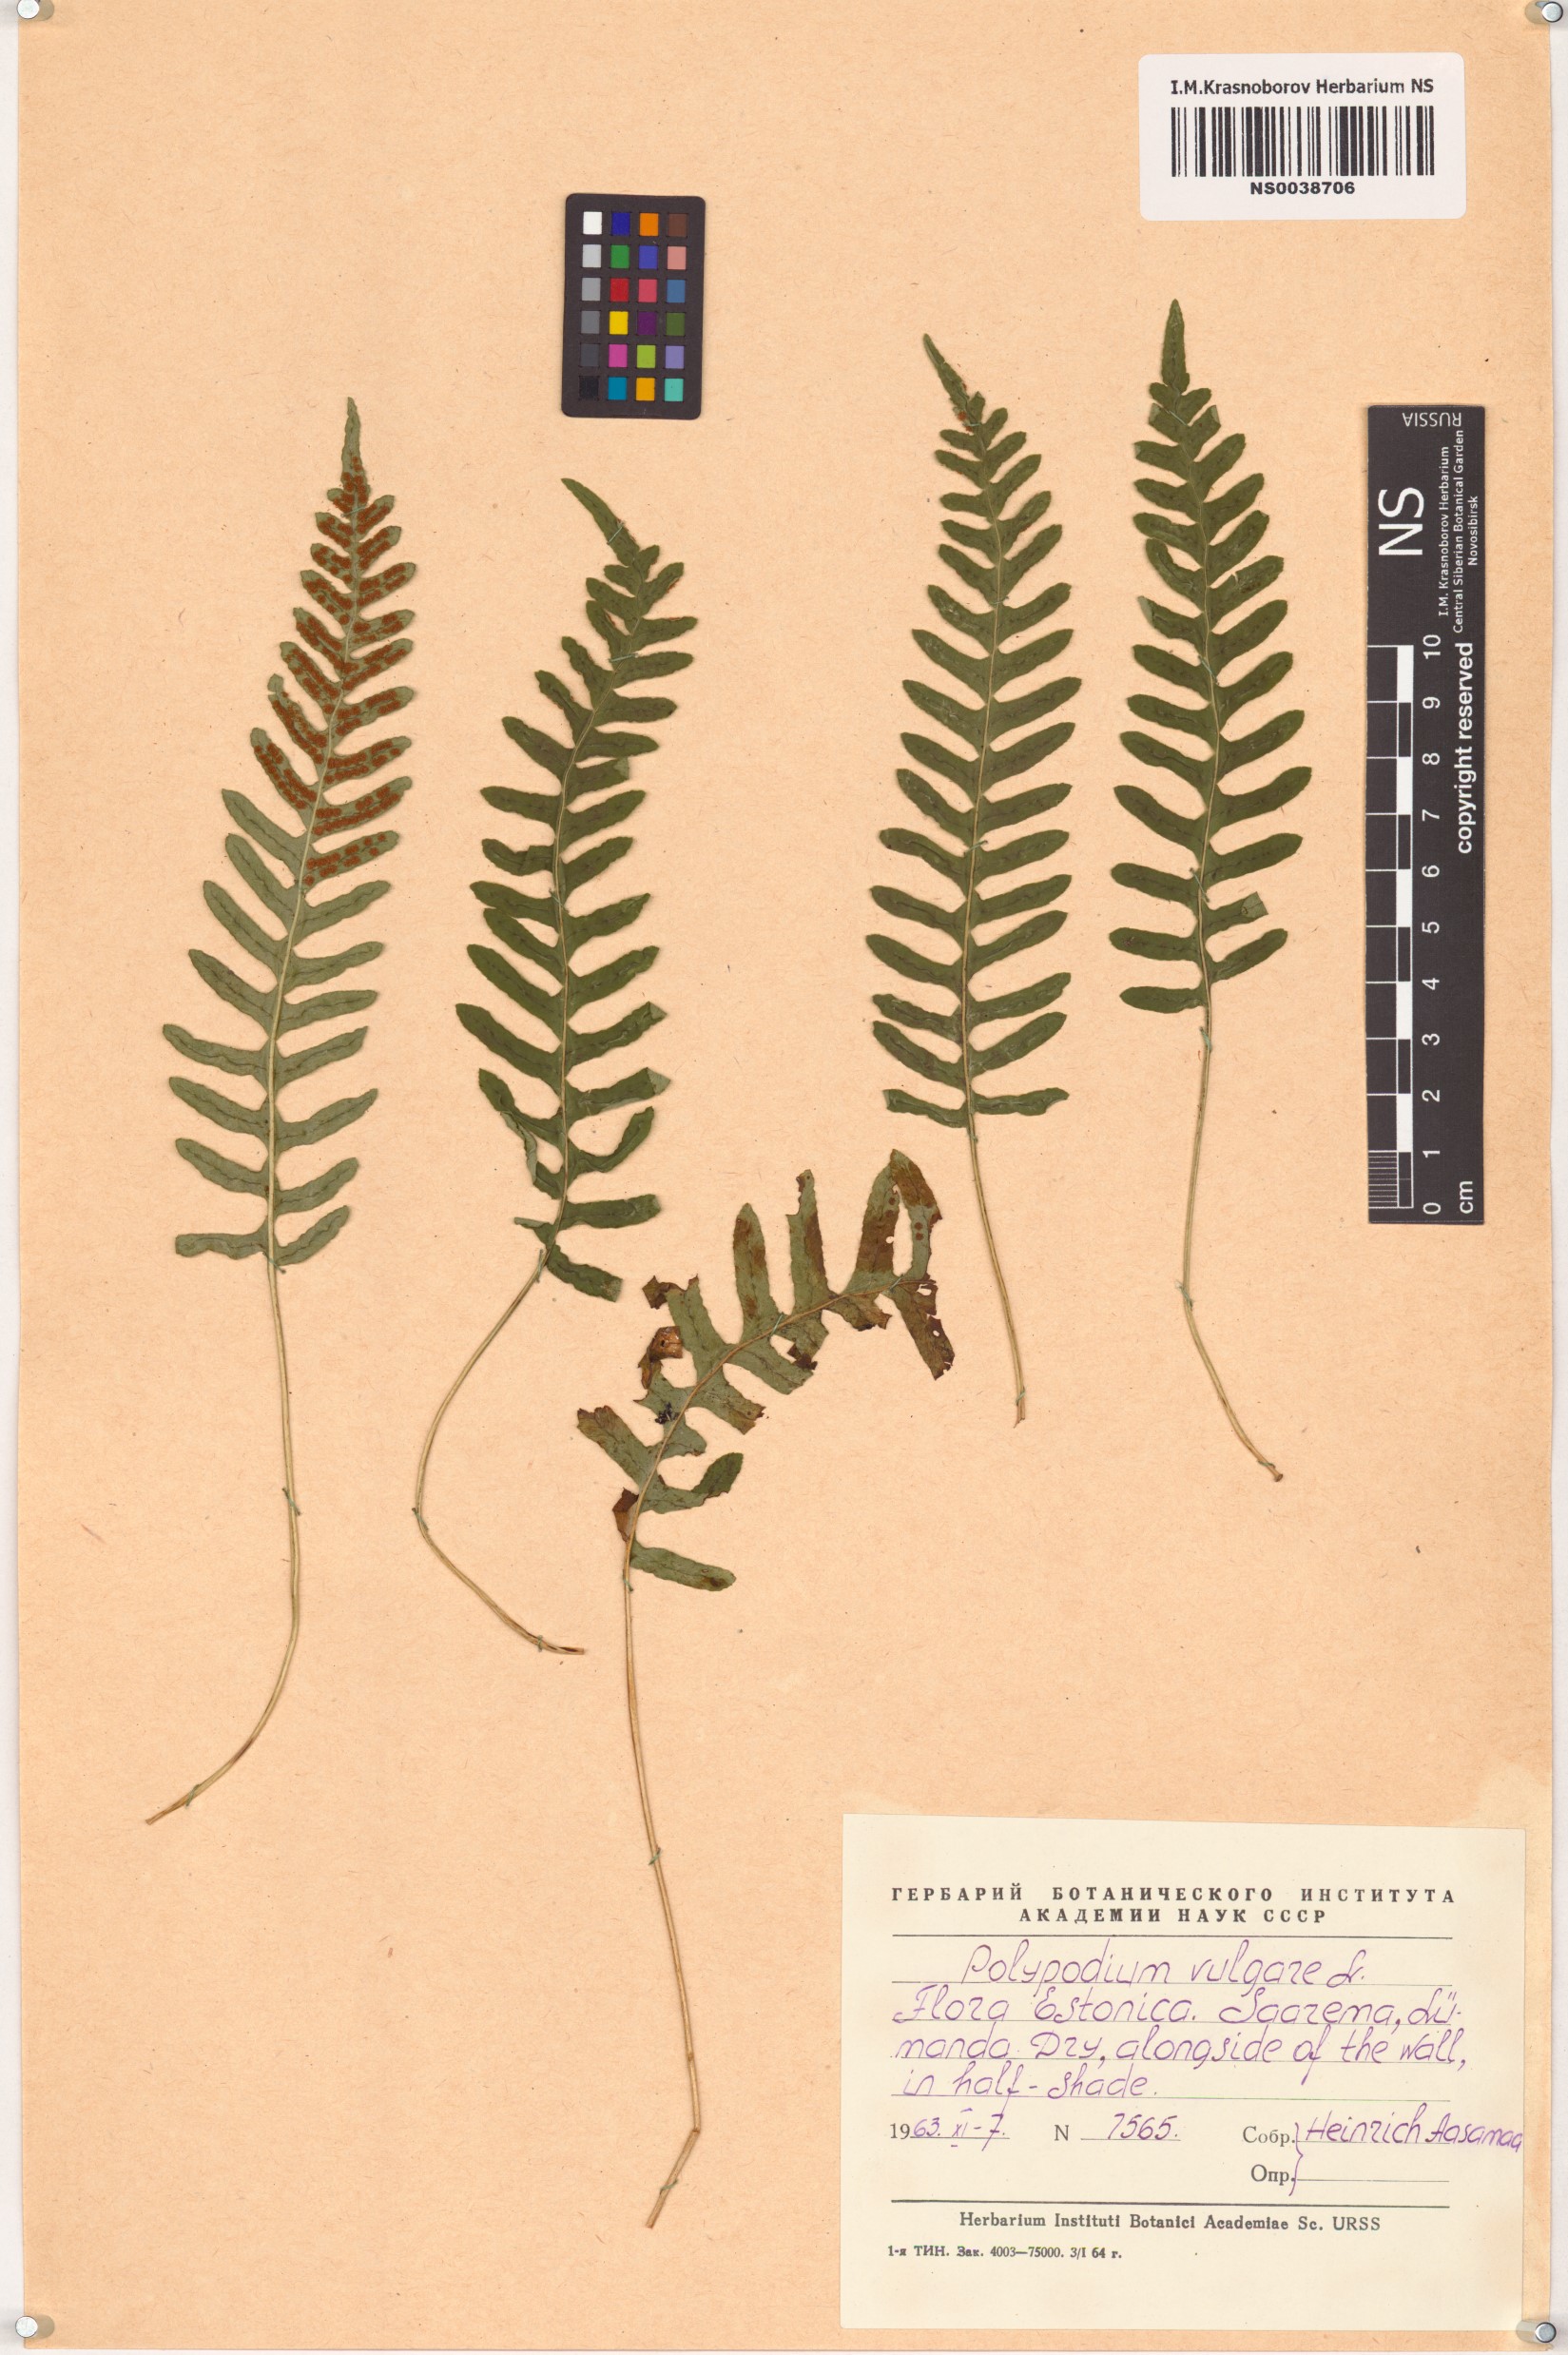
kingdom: Plantae
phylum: Tracheophyta
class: Polypodiopsida
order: Polypodiales
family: Polypodiaceae
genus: Polypodium
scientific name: Polypodium vulgare
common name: Common polypody
